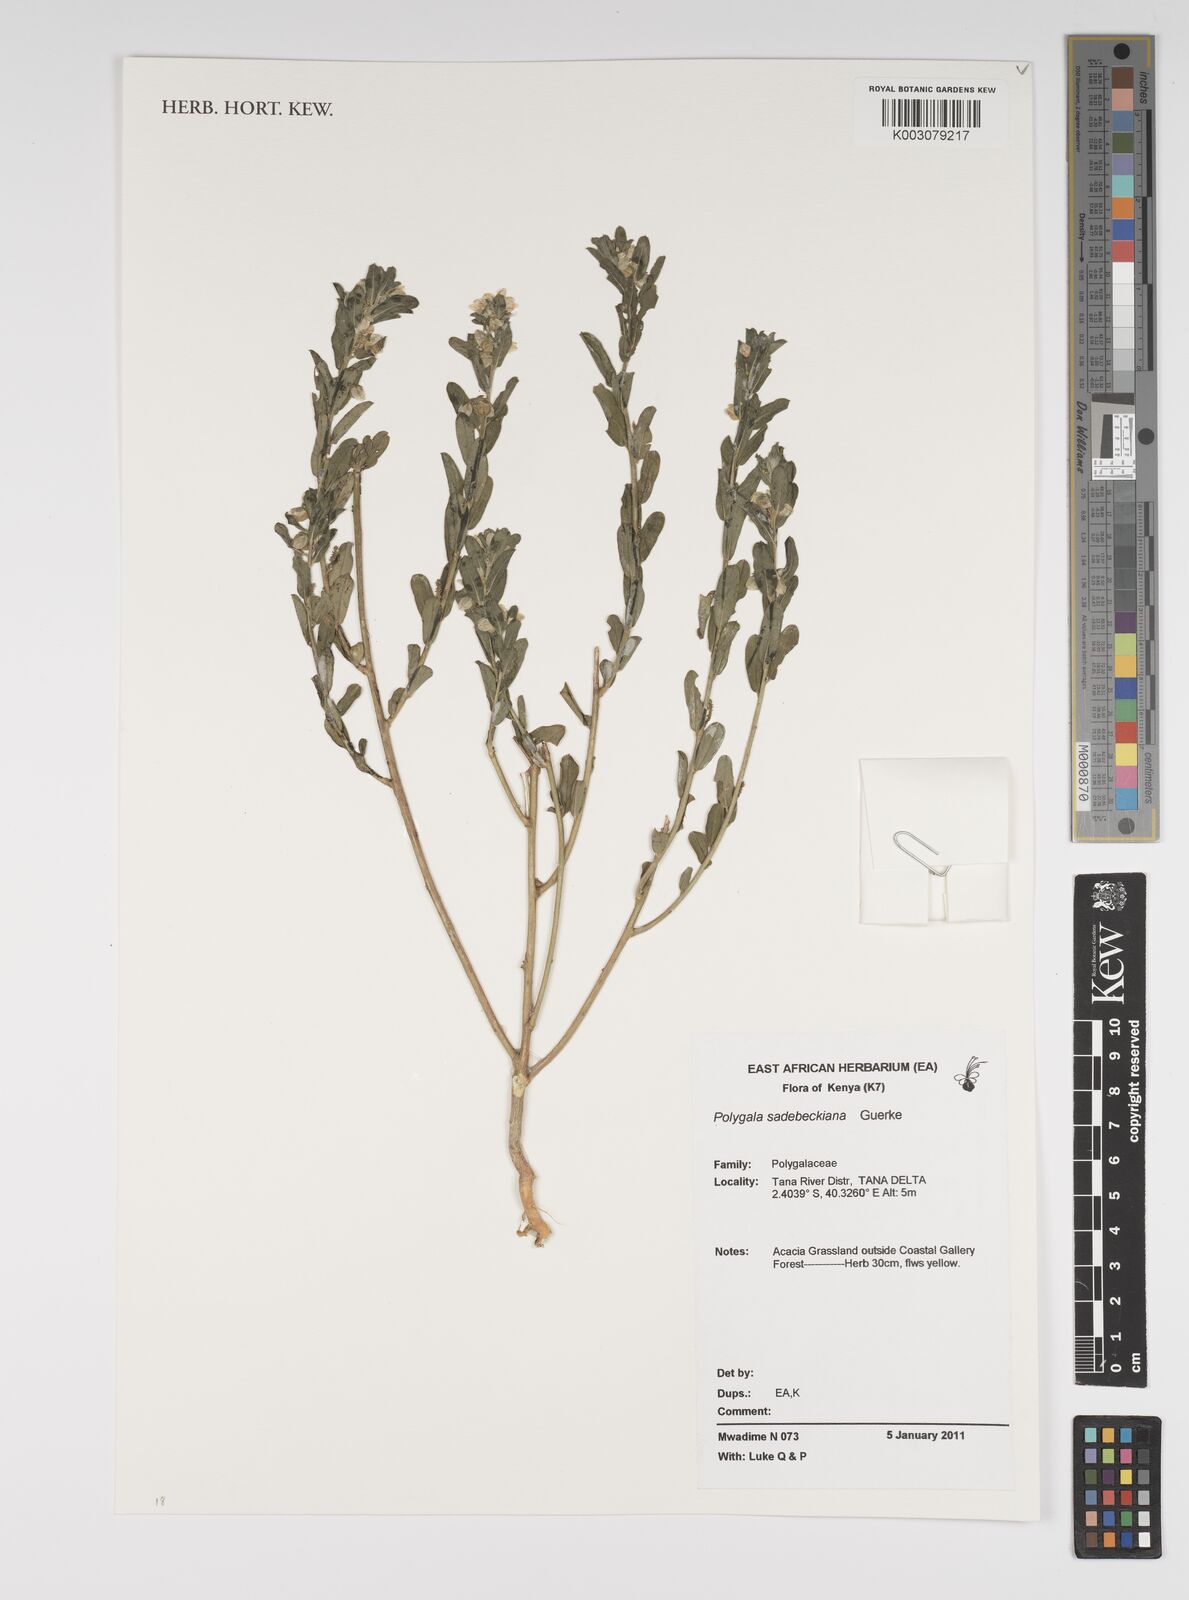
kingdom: Plantae
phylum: Tracheophyta
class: Magnoliopsida
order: Fabales
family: Polygalaceae
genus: Polygala
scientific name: Polygala sadebeckiana
